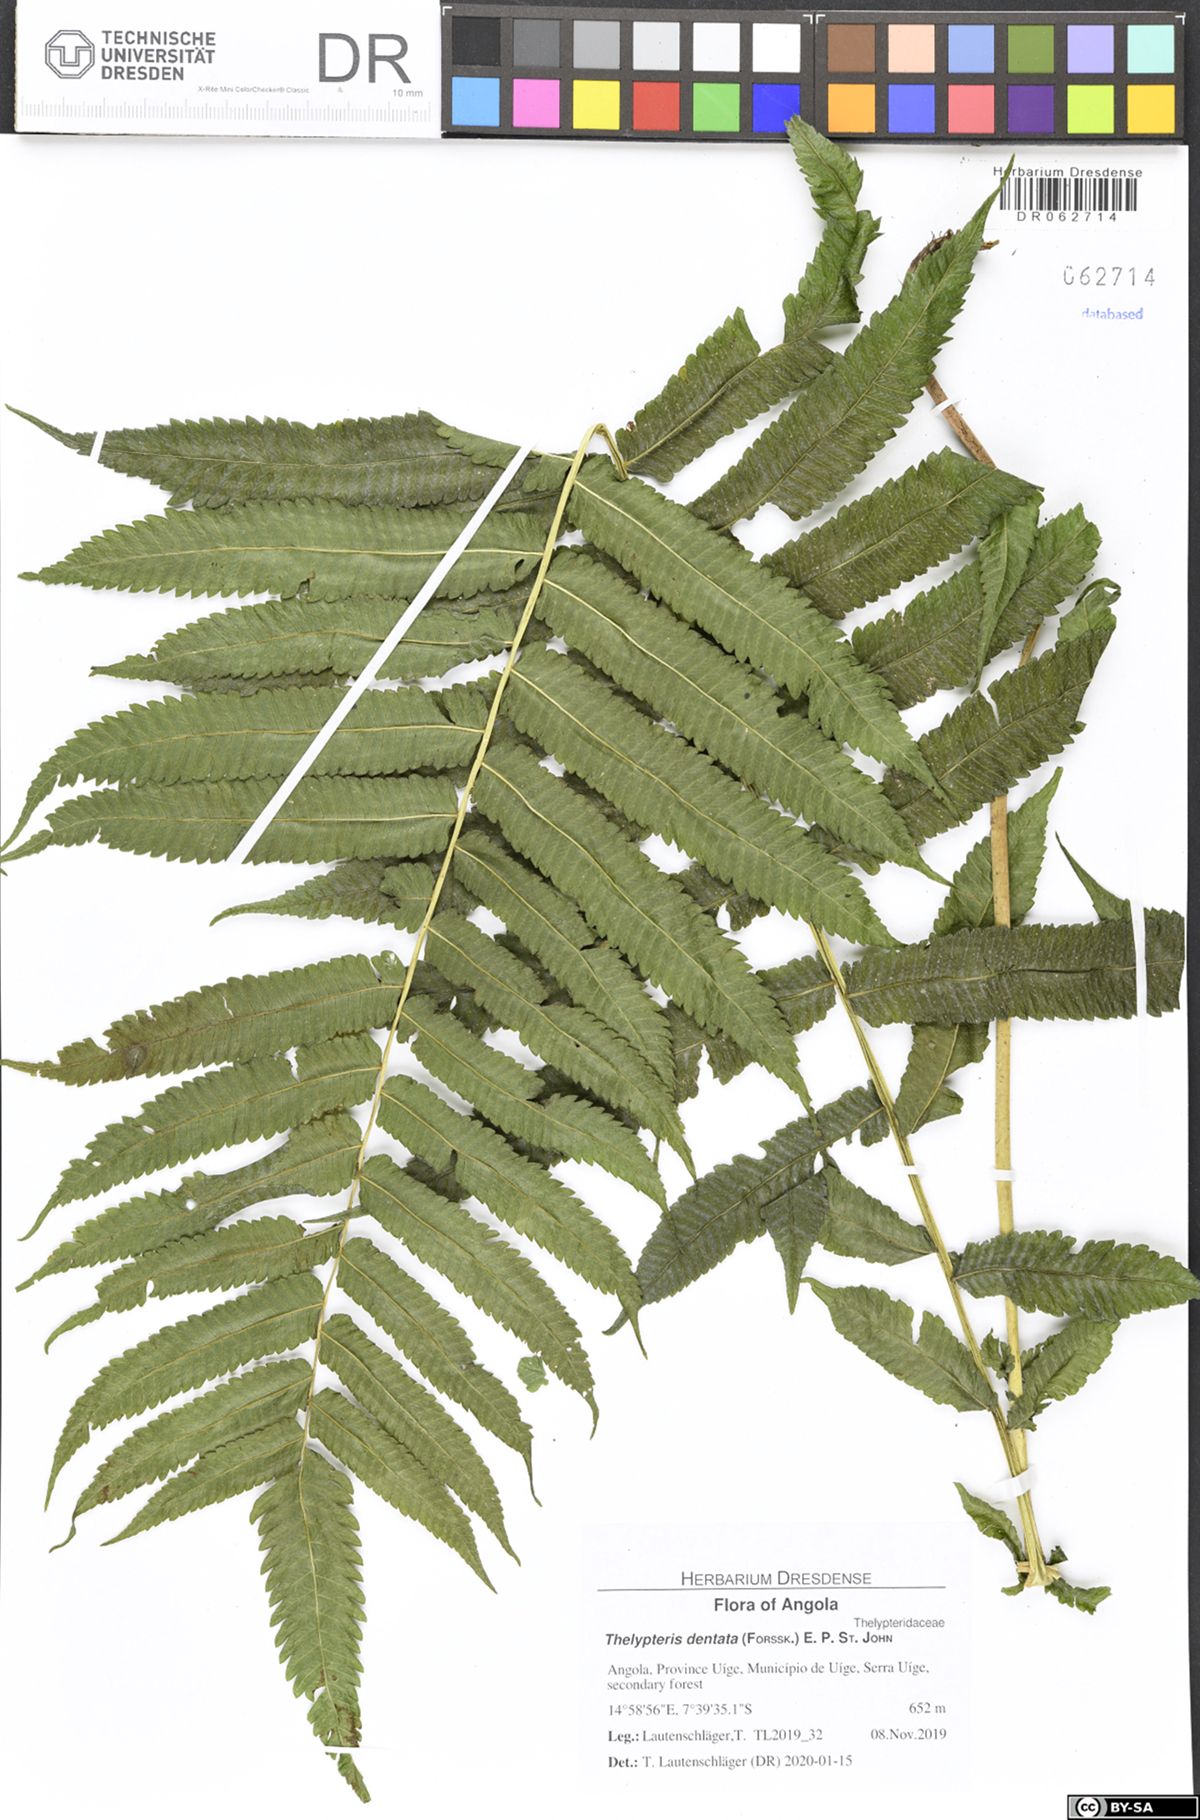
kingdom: Plantae
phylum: Tracheophyta
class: Polypodiopsida
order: Polypodiales
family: Thelypteridaceae
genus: Christella
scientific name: Christella dentata
